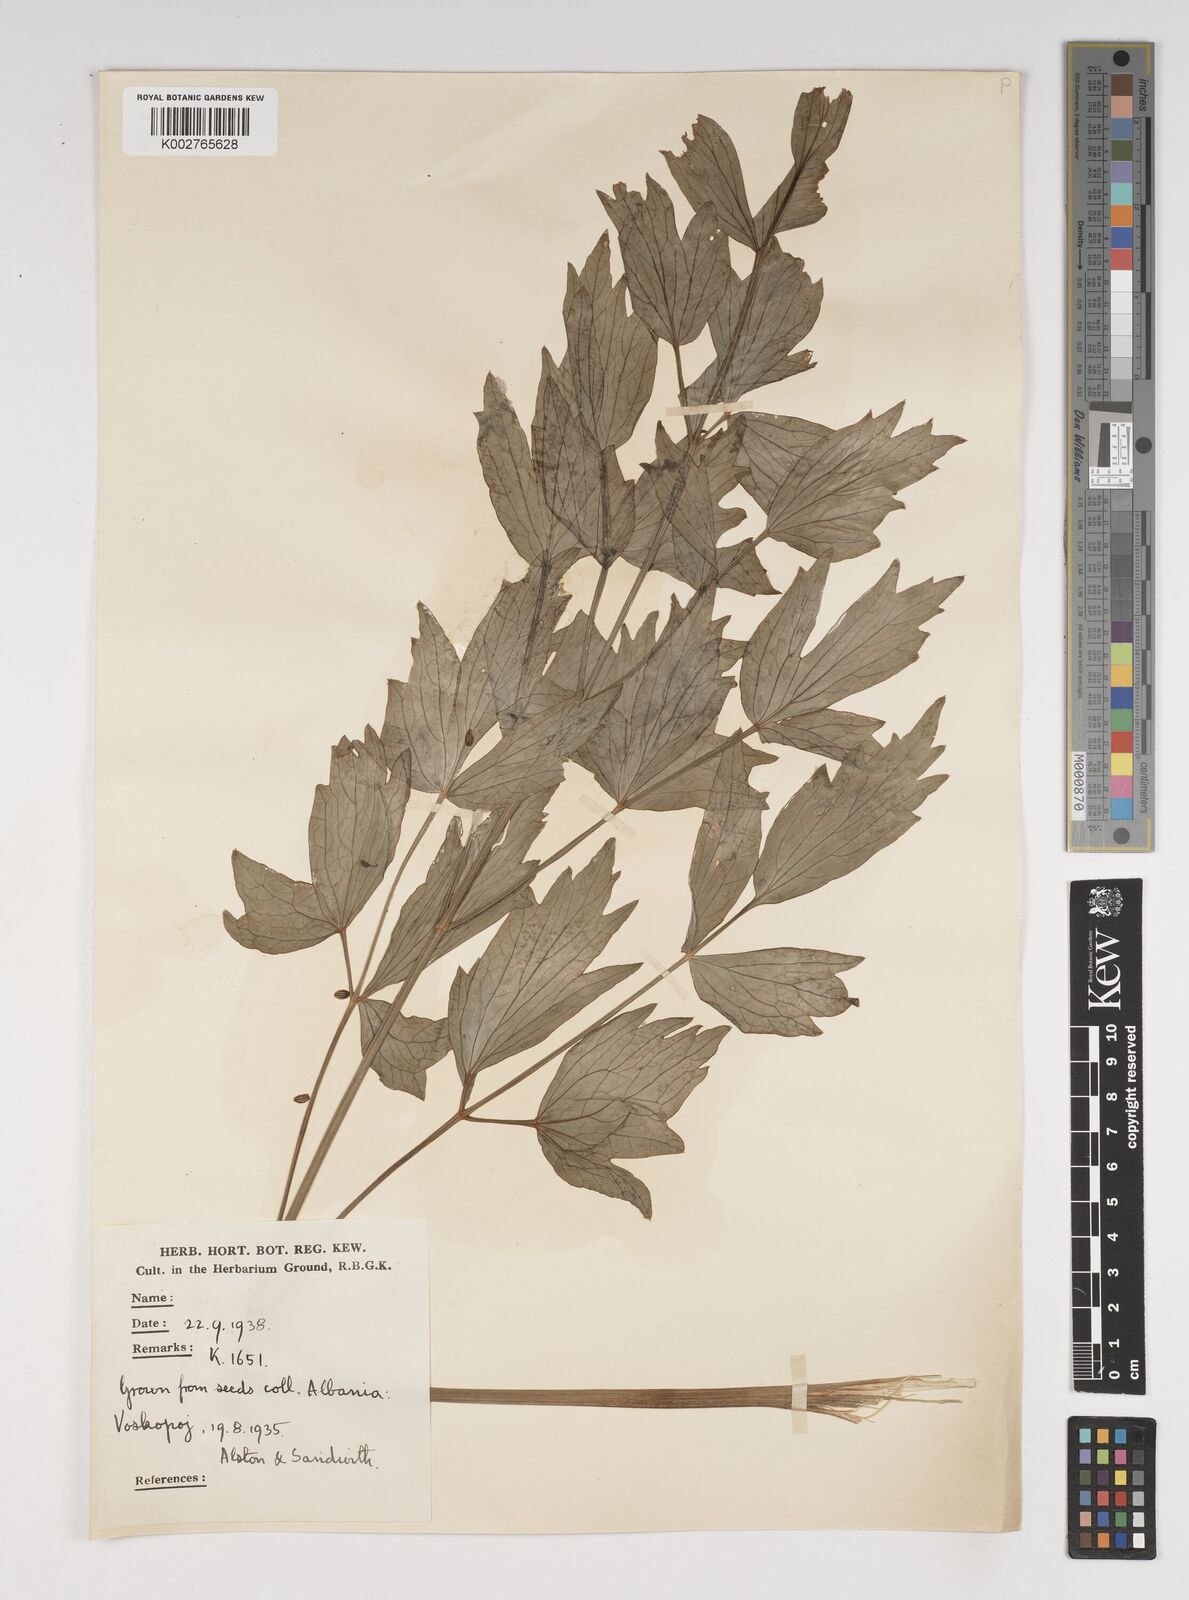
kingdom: Plantae
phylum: Tracheophyta
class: Magnoliopsida
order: Apiales
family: Apiaceae
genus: Levisticum
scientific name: Levisticum officinale
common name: Lovage
